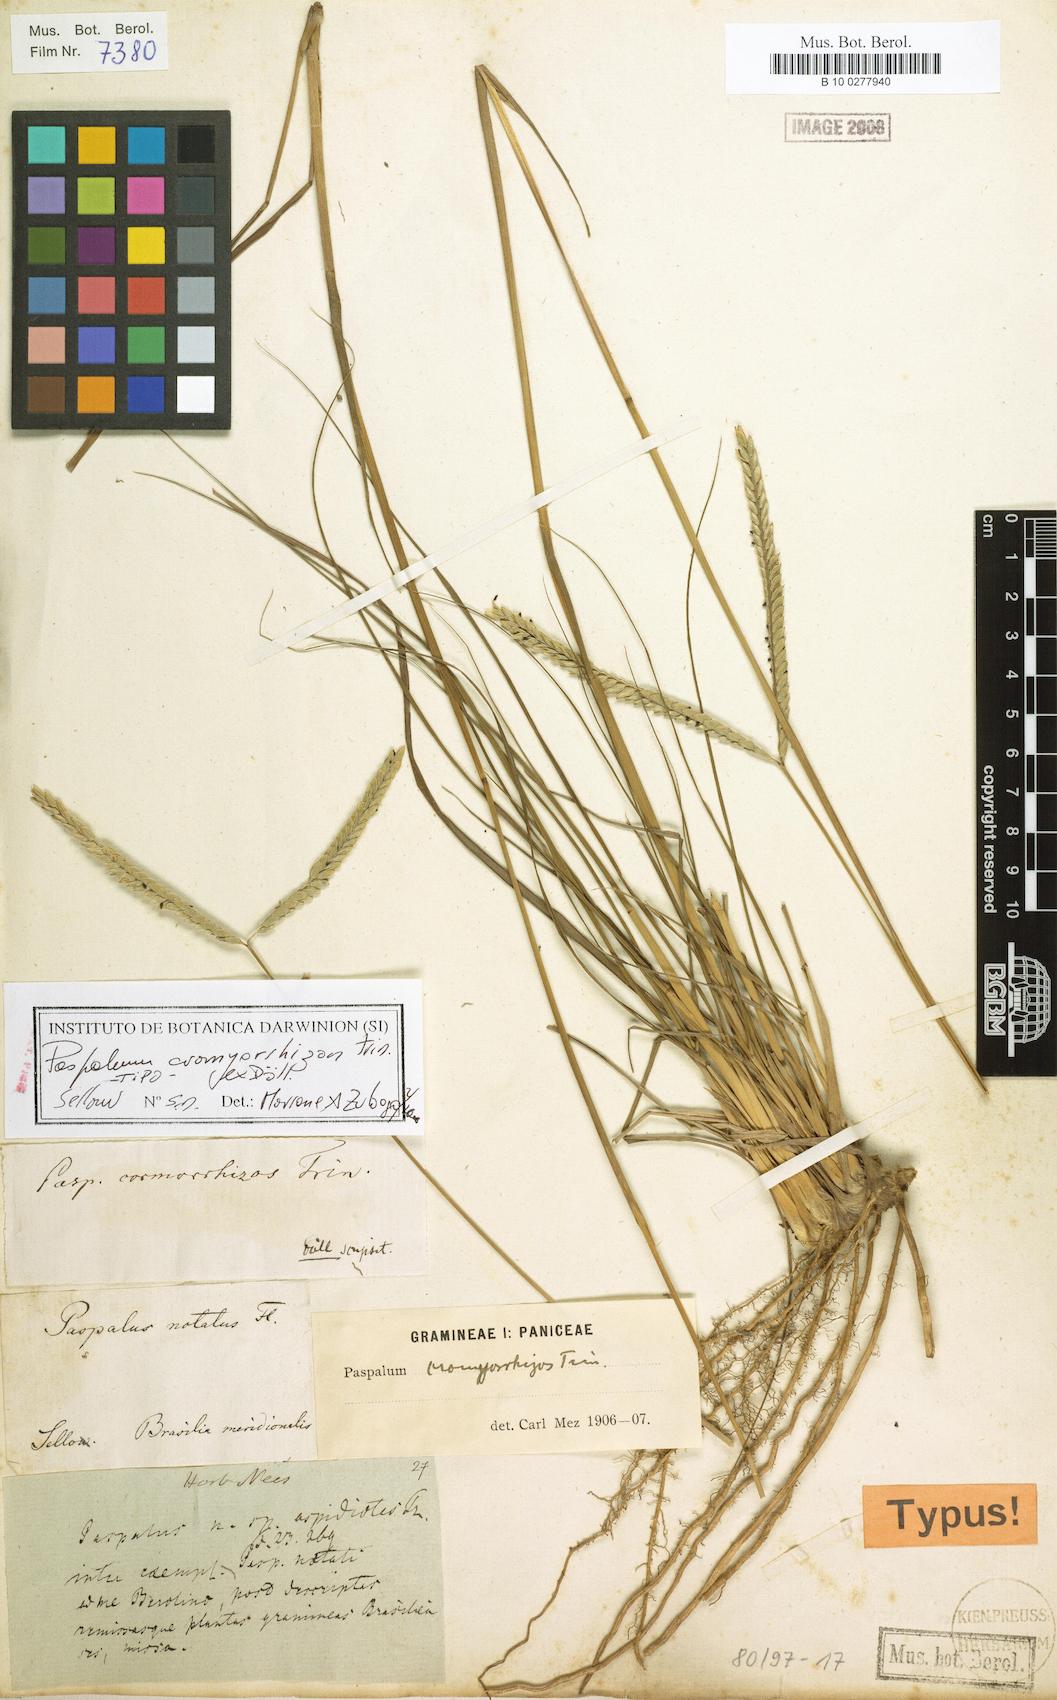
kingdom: Plantae
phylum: Tracheophyta
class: Liliopsida
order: Poales
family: Poaceae
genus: Paspalum
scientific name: Paspalum cromyorhizon
